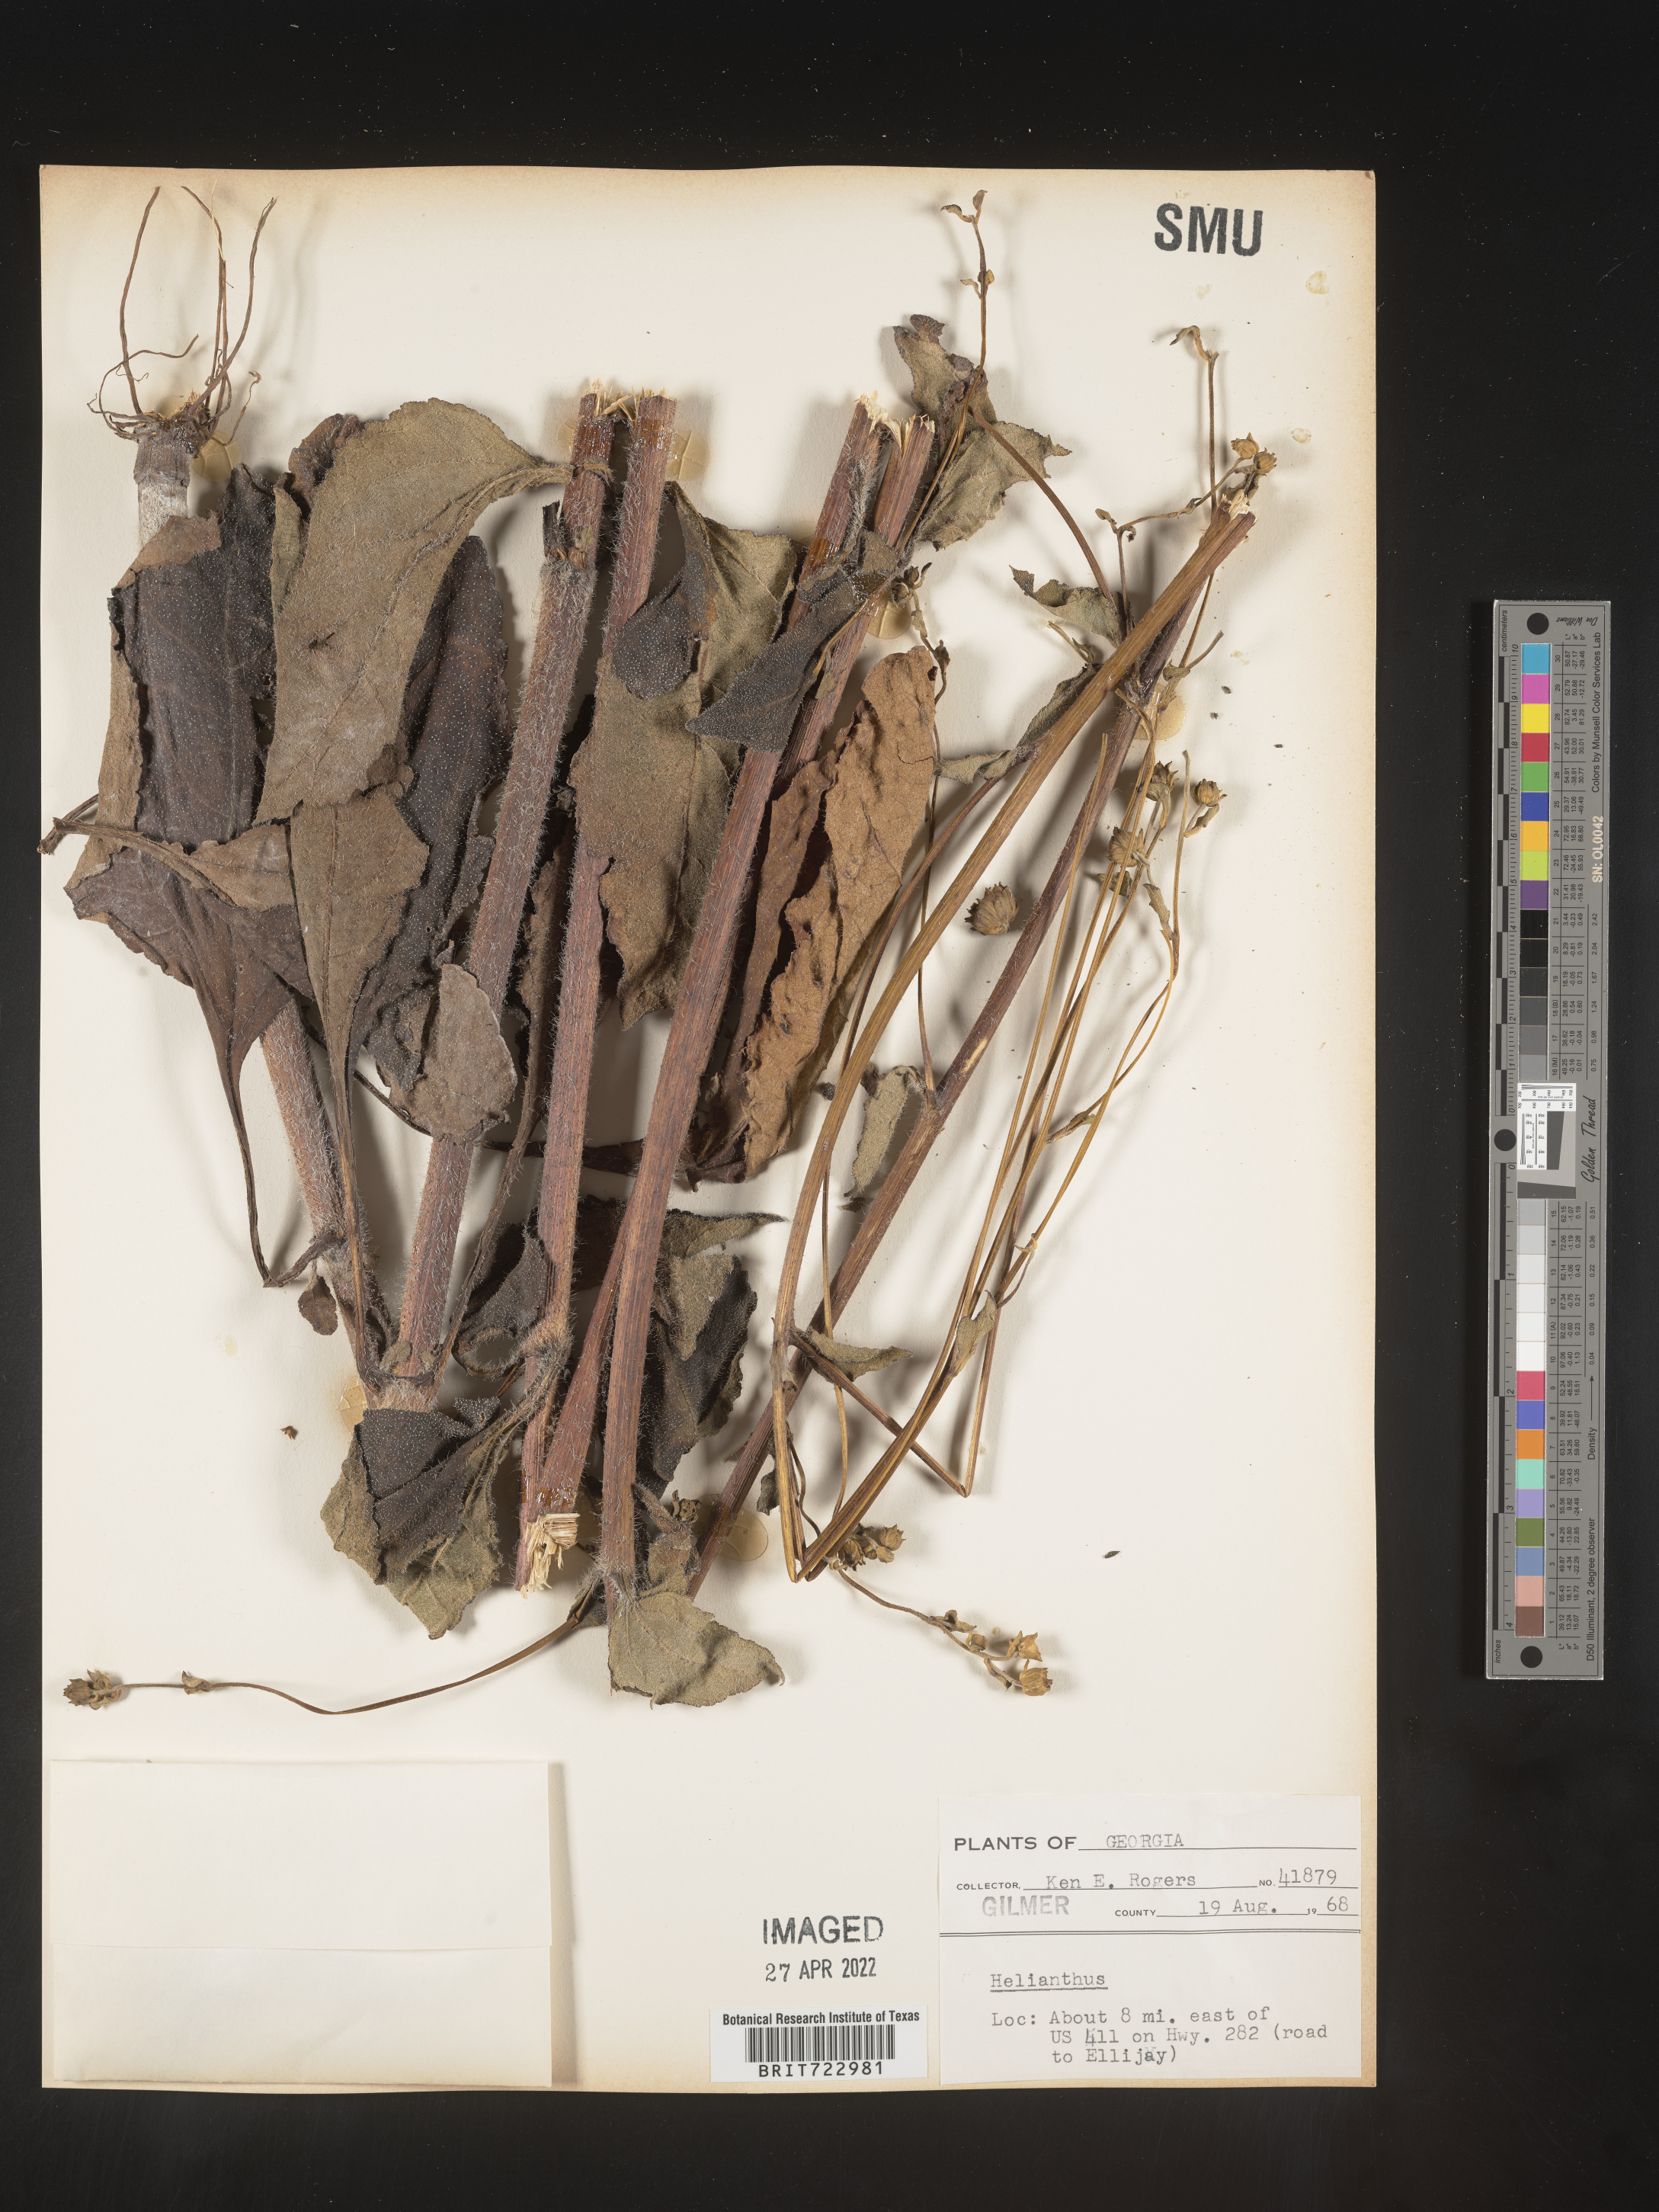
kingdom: Plantae
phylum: Tracheophyta
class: Magnoliopsida
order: Asterales
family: Asteraceae
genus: Helianthus
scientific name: Helianthus
